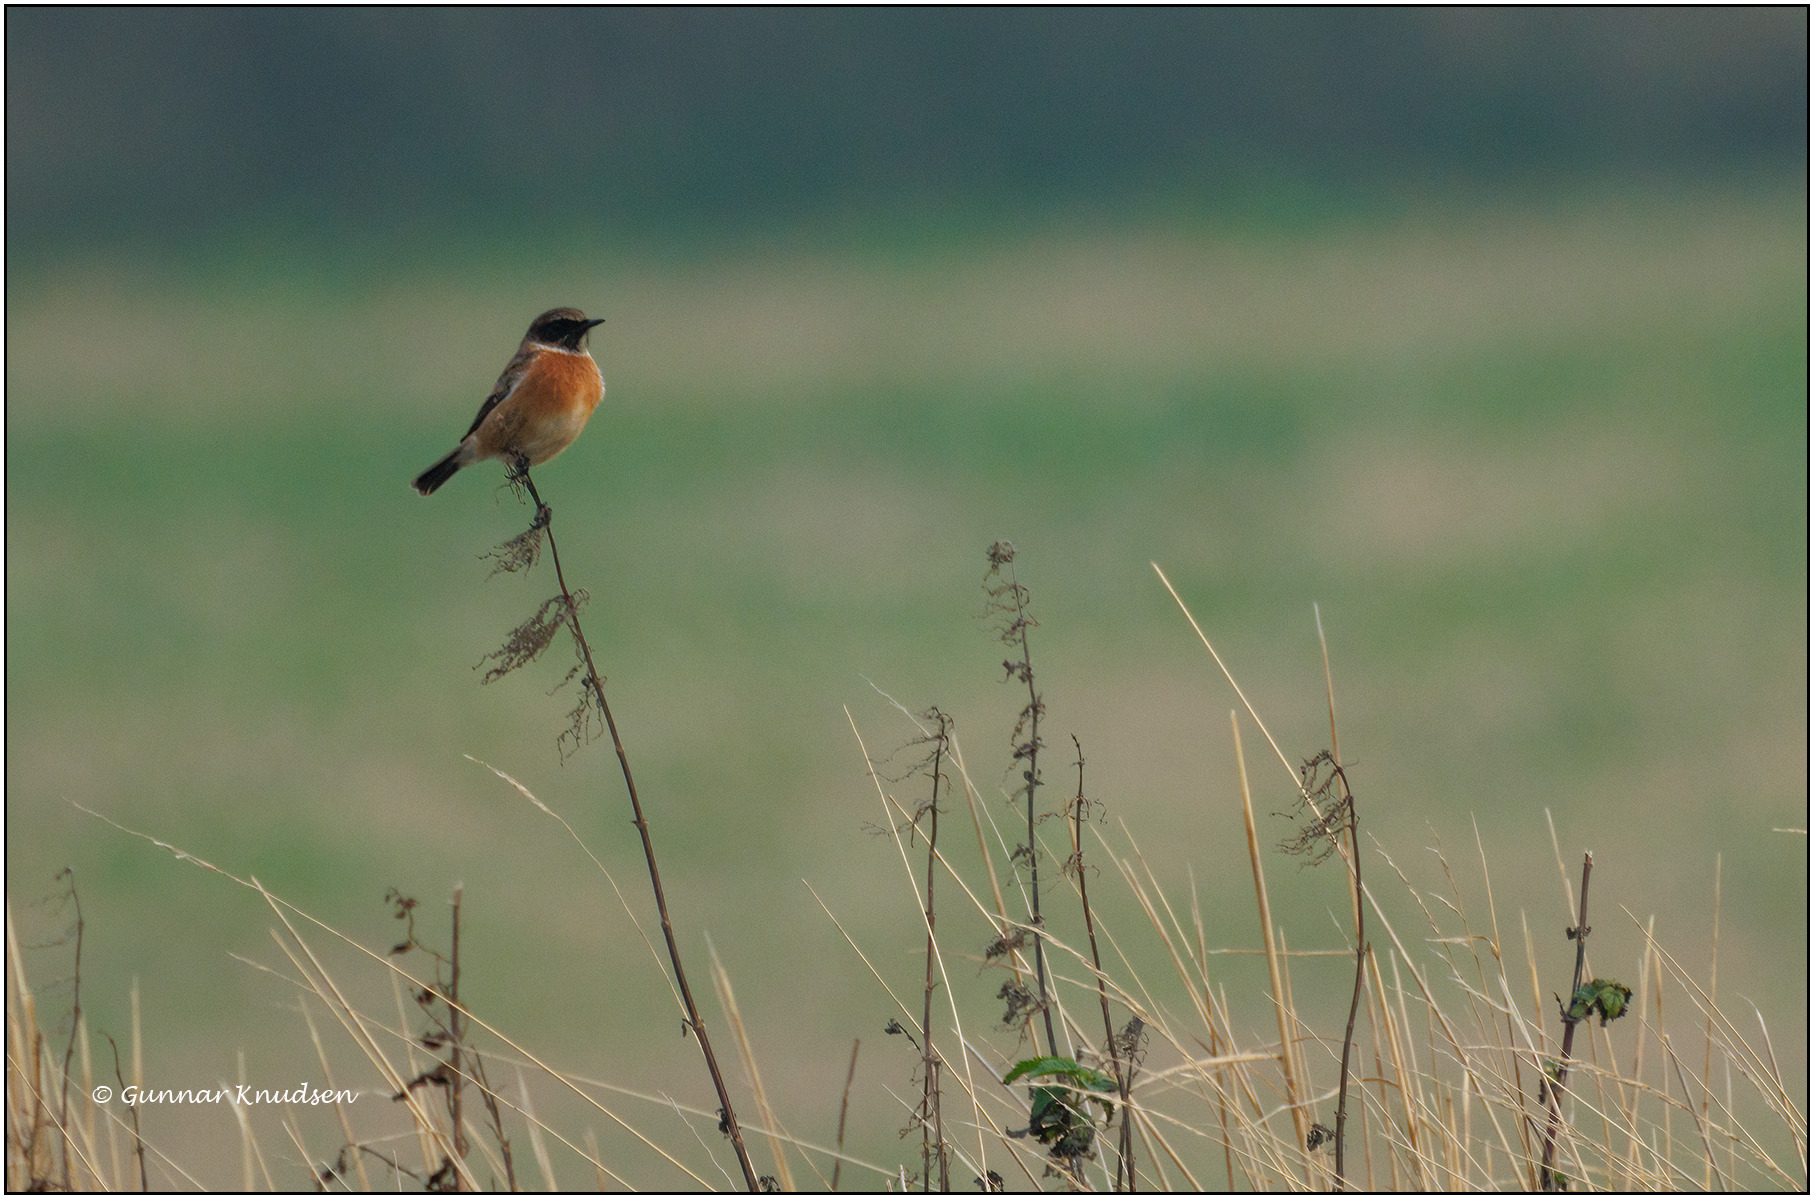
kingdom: Animalia
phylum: Chordata
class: Aves
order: Passeriformes
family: Muscicapidae
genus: Saxicola
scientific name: Saxicola rubicola
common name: Sortstrubet bynkefugl
